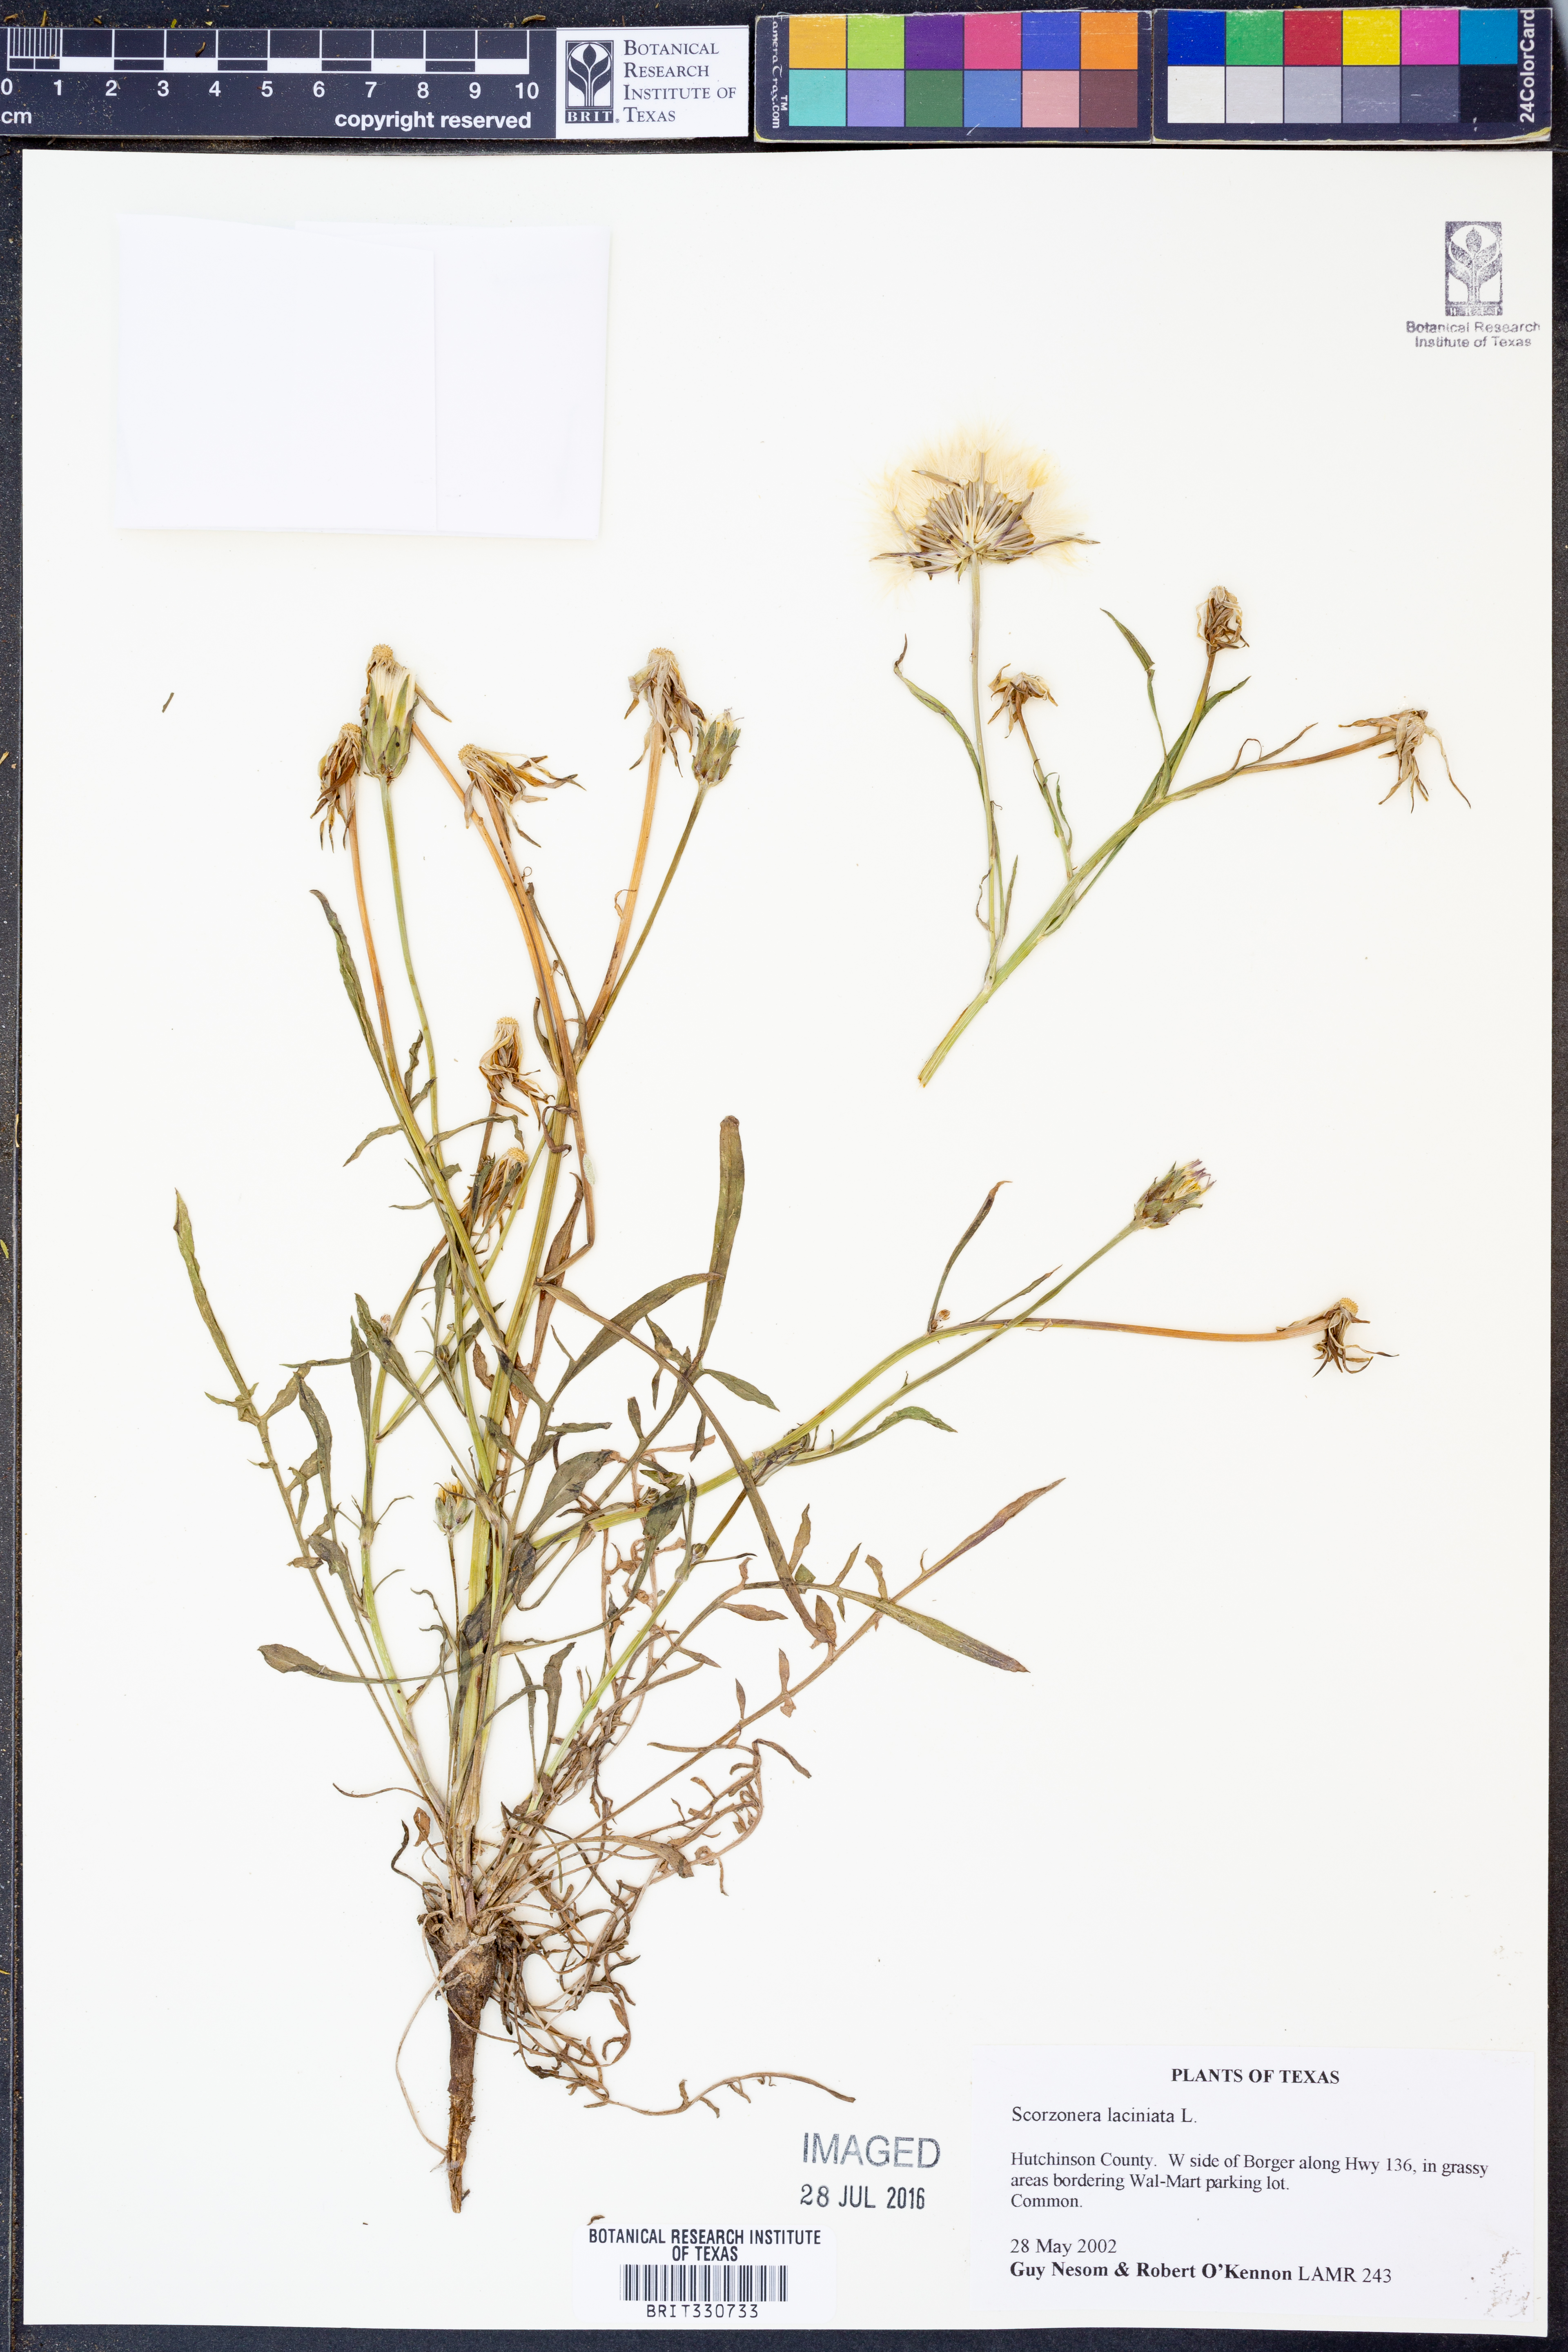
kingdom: Plantae
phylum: Tracheophyta
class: Magnoliopsida
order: Asterales
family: Asteraceae
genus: Scorzonera
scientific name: Scorzonera laciniata
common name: Cutleaf vipergrass
